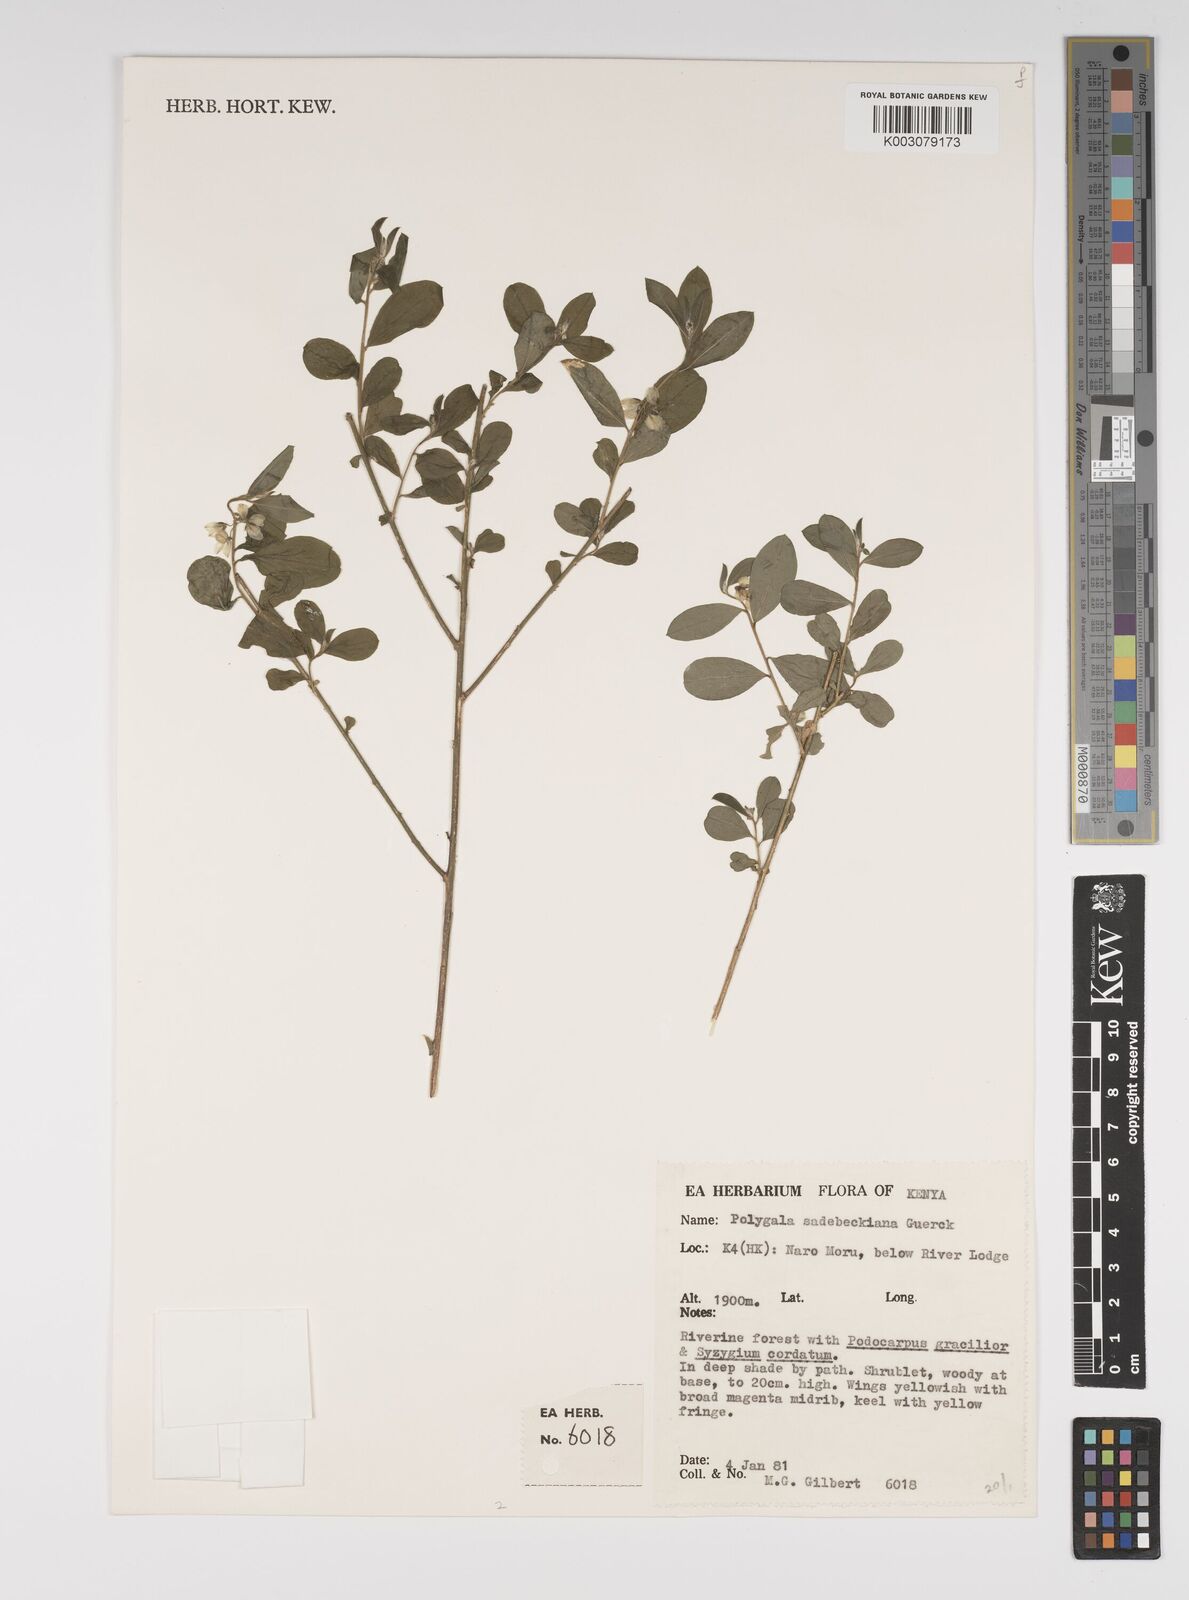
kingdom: Plantae
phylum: Tracheophyta
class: Magnoliopsida
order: Fabales
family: Polygalaceae
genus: Polygala
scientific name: Polygala sadebeckiana
